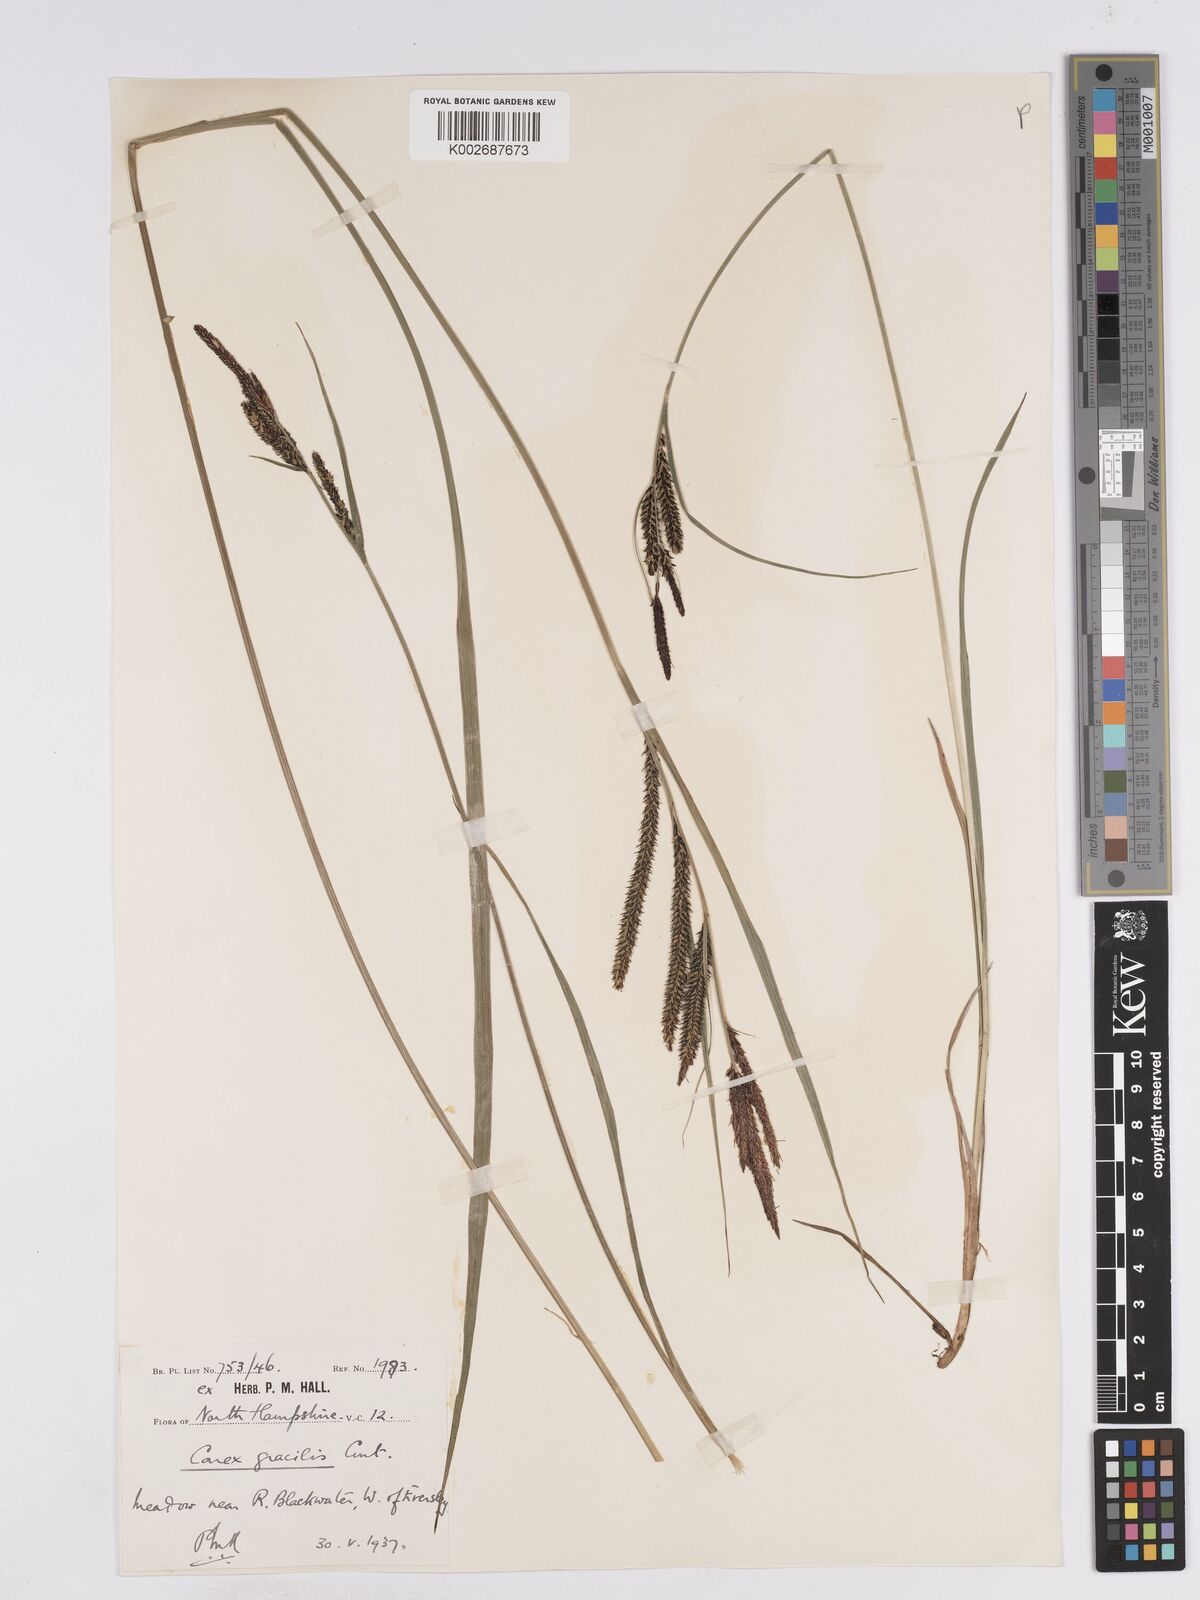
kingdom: Plantae
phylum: Tracheophyta
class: Liliopsida
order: Poales
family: Cyperaceae
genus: Carex
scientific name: Carex acuta
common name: Slender tufted-sedge
